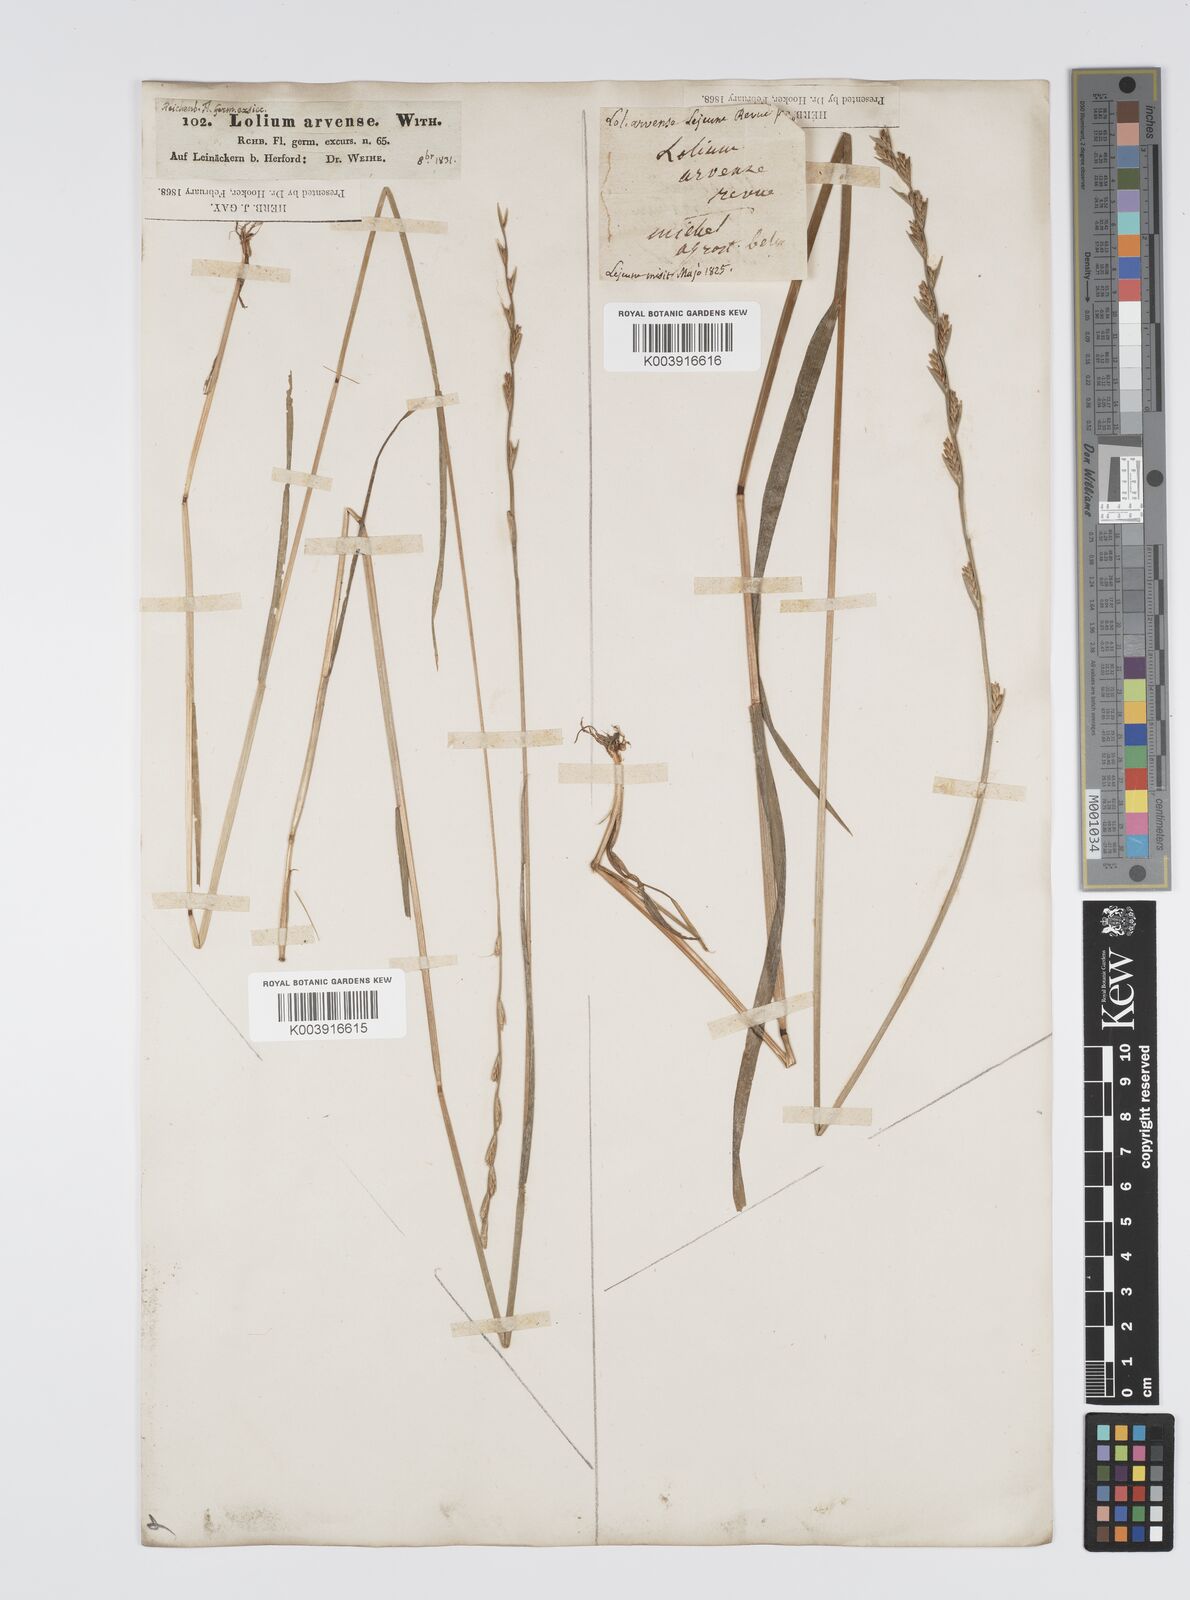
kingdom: Plantae
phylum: Tracheophyta
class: Liliopsida
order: Poales
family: Poaceae
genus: Lolium
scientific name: Lolium remotum
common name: Flaxfield rye-grass
